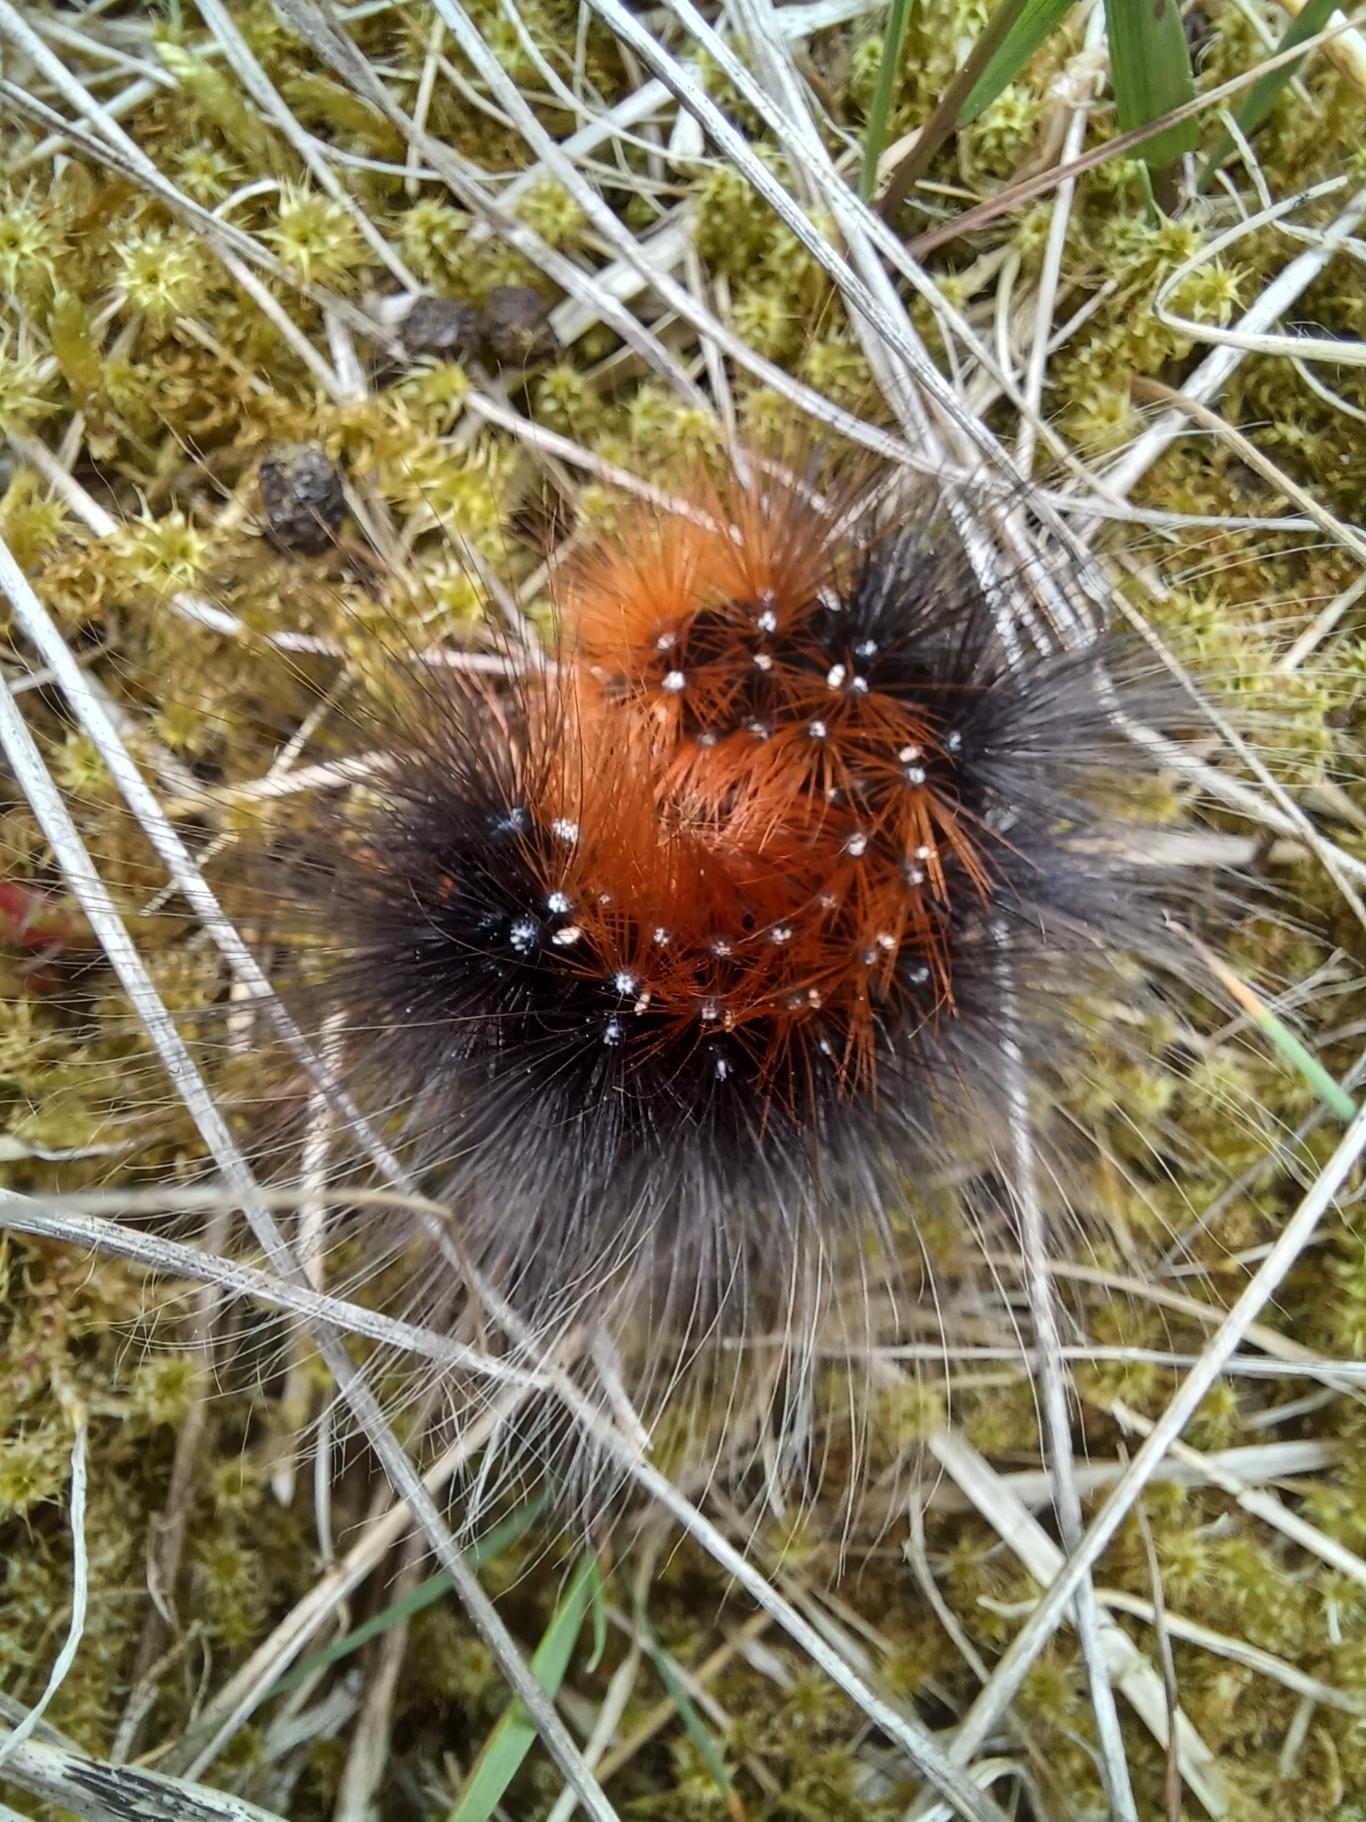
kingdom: Animalia
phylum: Arthropoda
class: Insecta
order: Lepidoptera
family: Erebidae
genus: Arctia
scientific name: Arctia caja
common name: Brun bjørn
